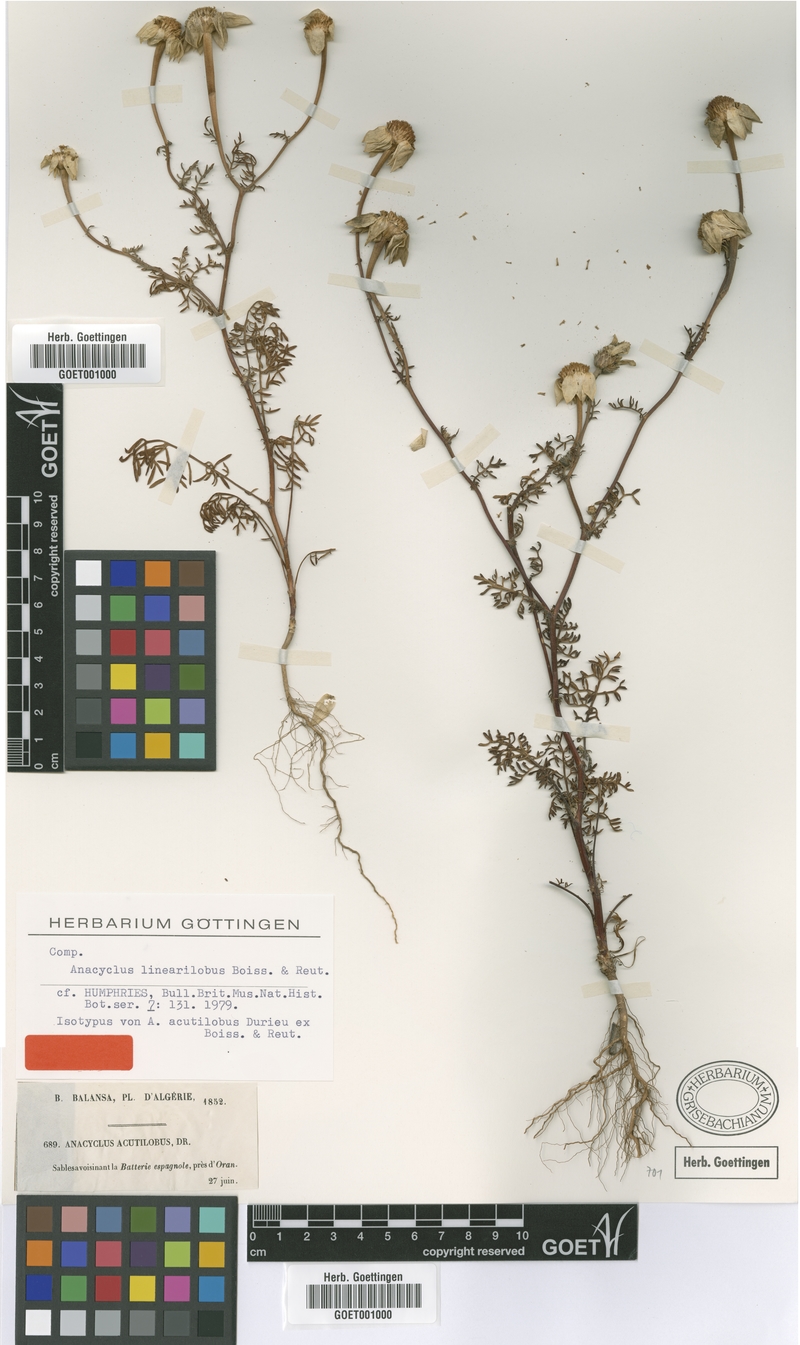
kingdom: Plantae
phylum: Tracheophyta
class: Magnoliopsida
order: Asterales
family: Asteraceae
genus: Anacyclus
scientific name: Anacyclus linearilobus
